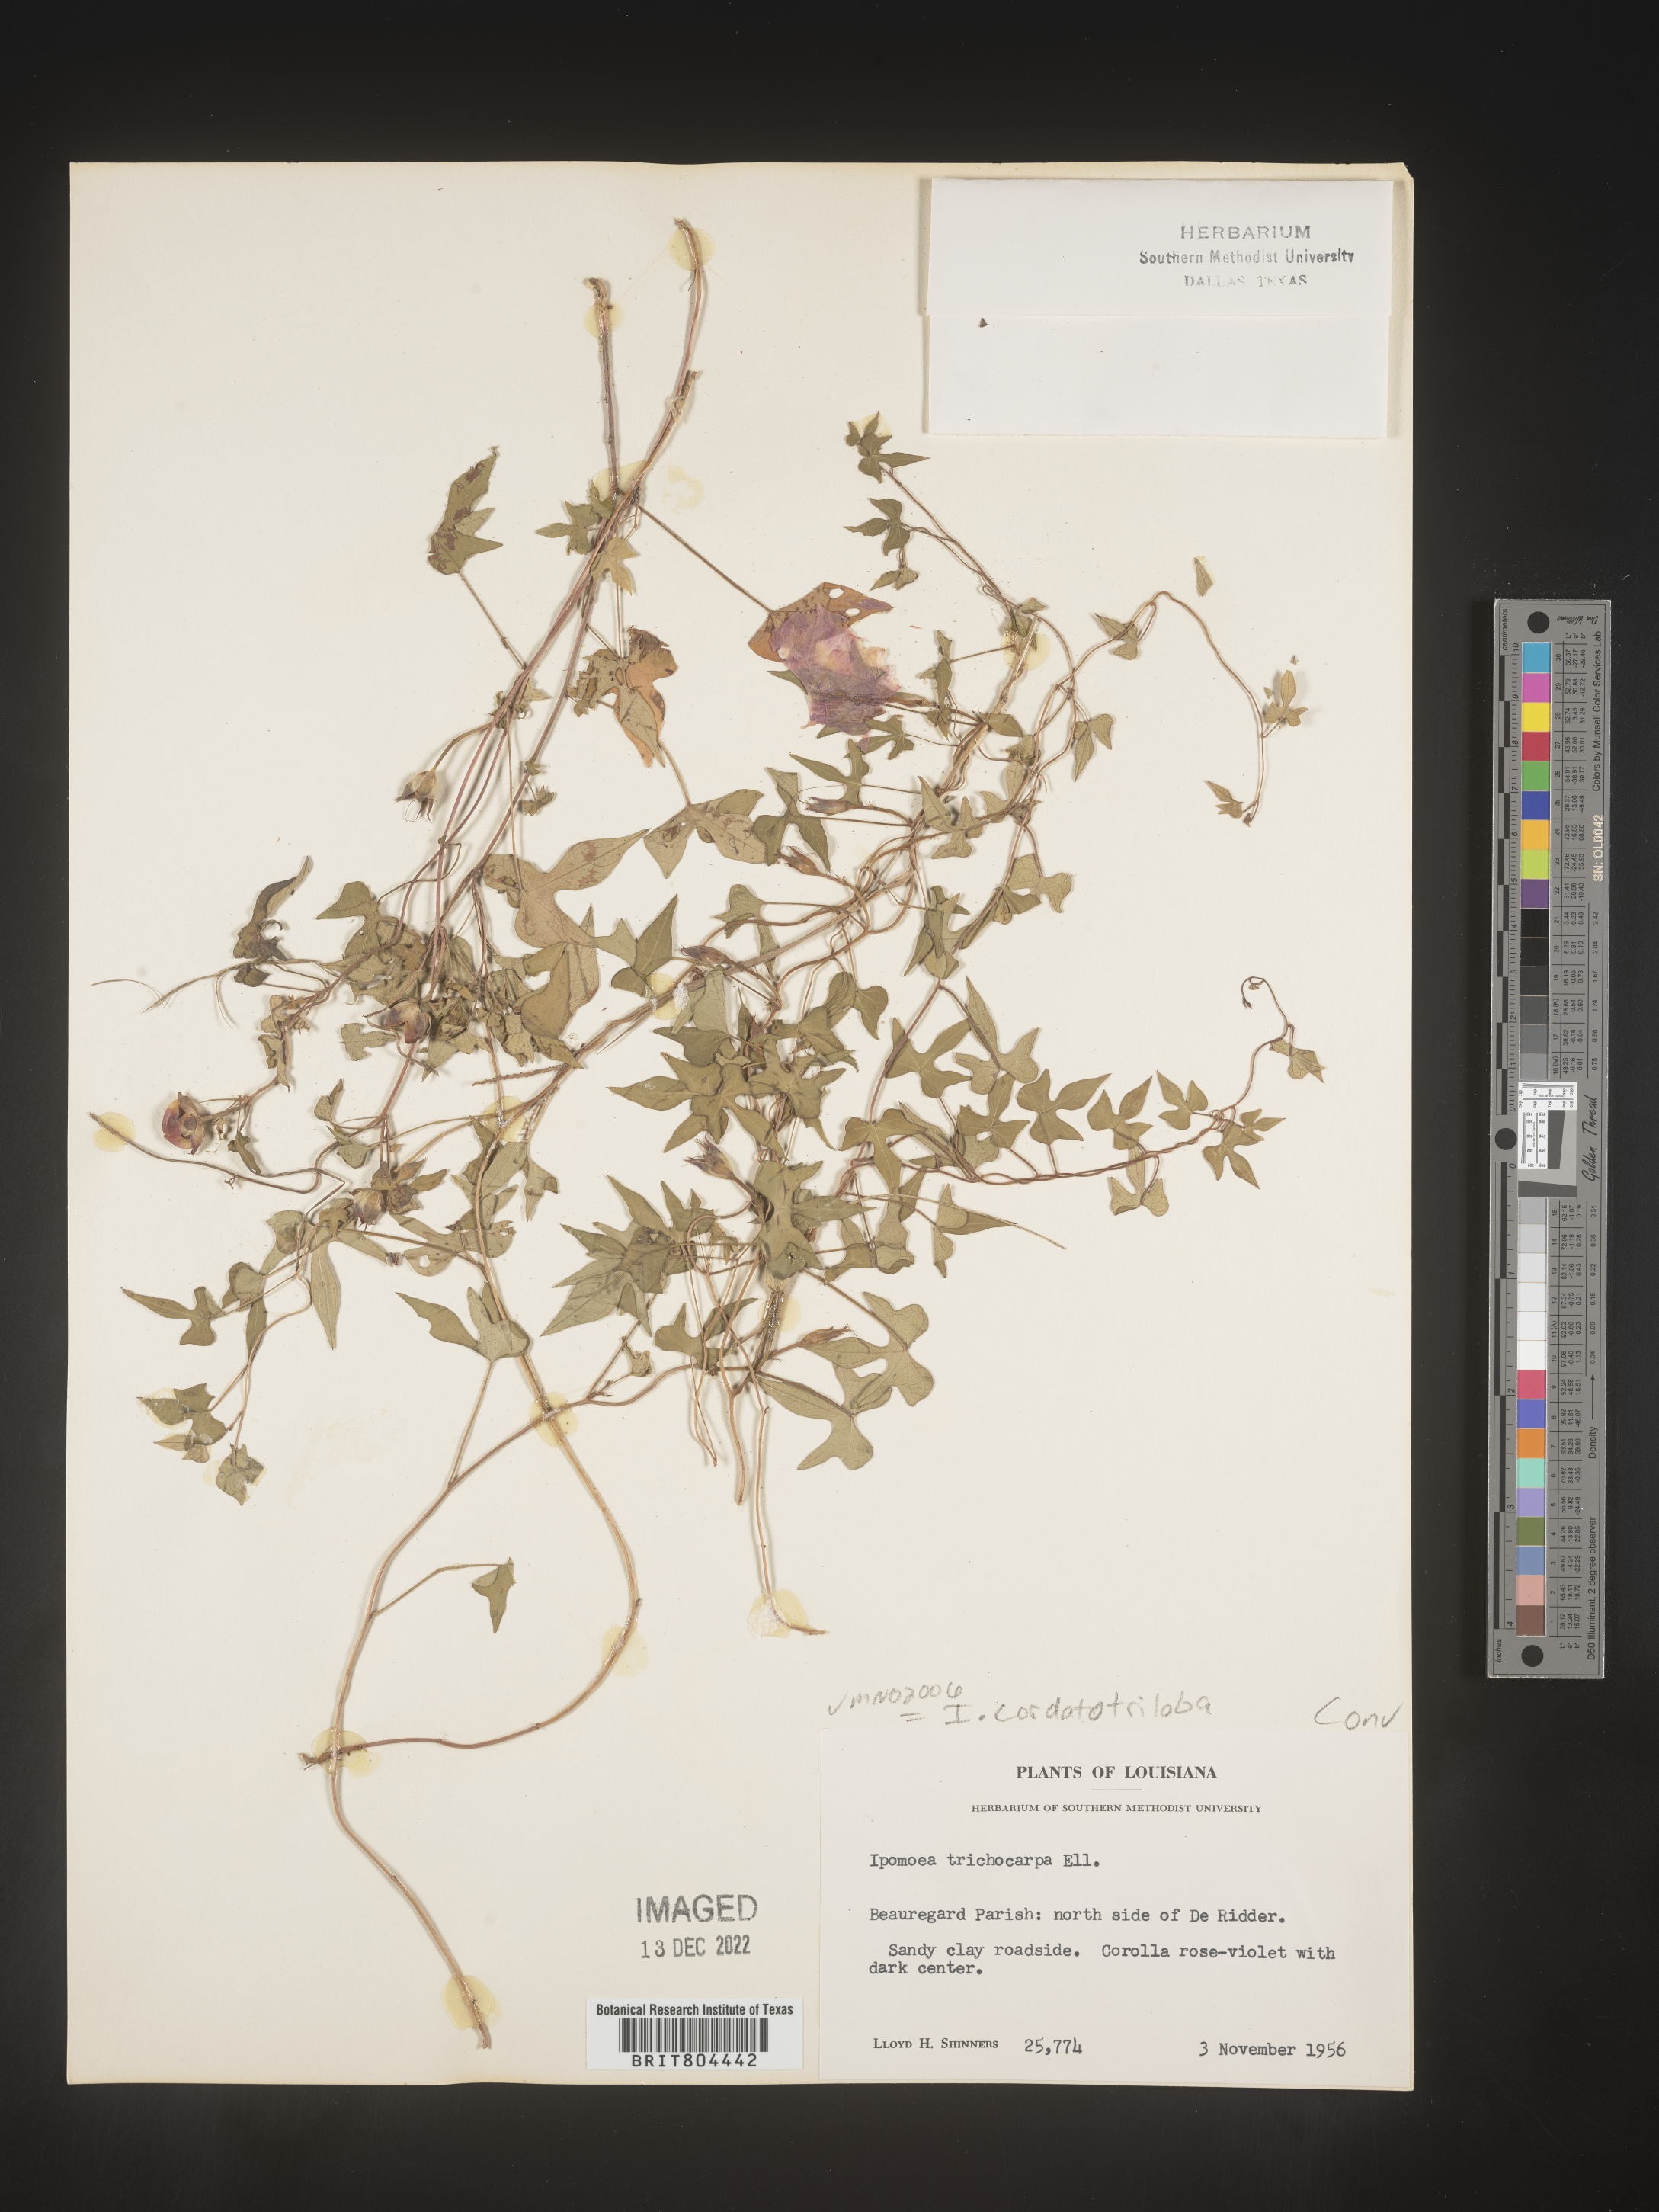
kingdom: Plantae
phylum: Tracheophyta
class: Magnoliopsida
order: Solanales
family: Convolvulaceae
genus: Ipomoea
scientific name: Ipomoea cordatotriloba
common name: Cotton morning glory
